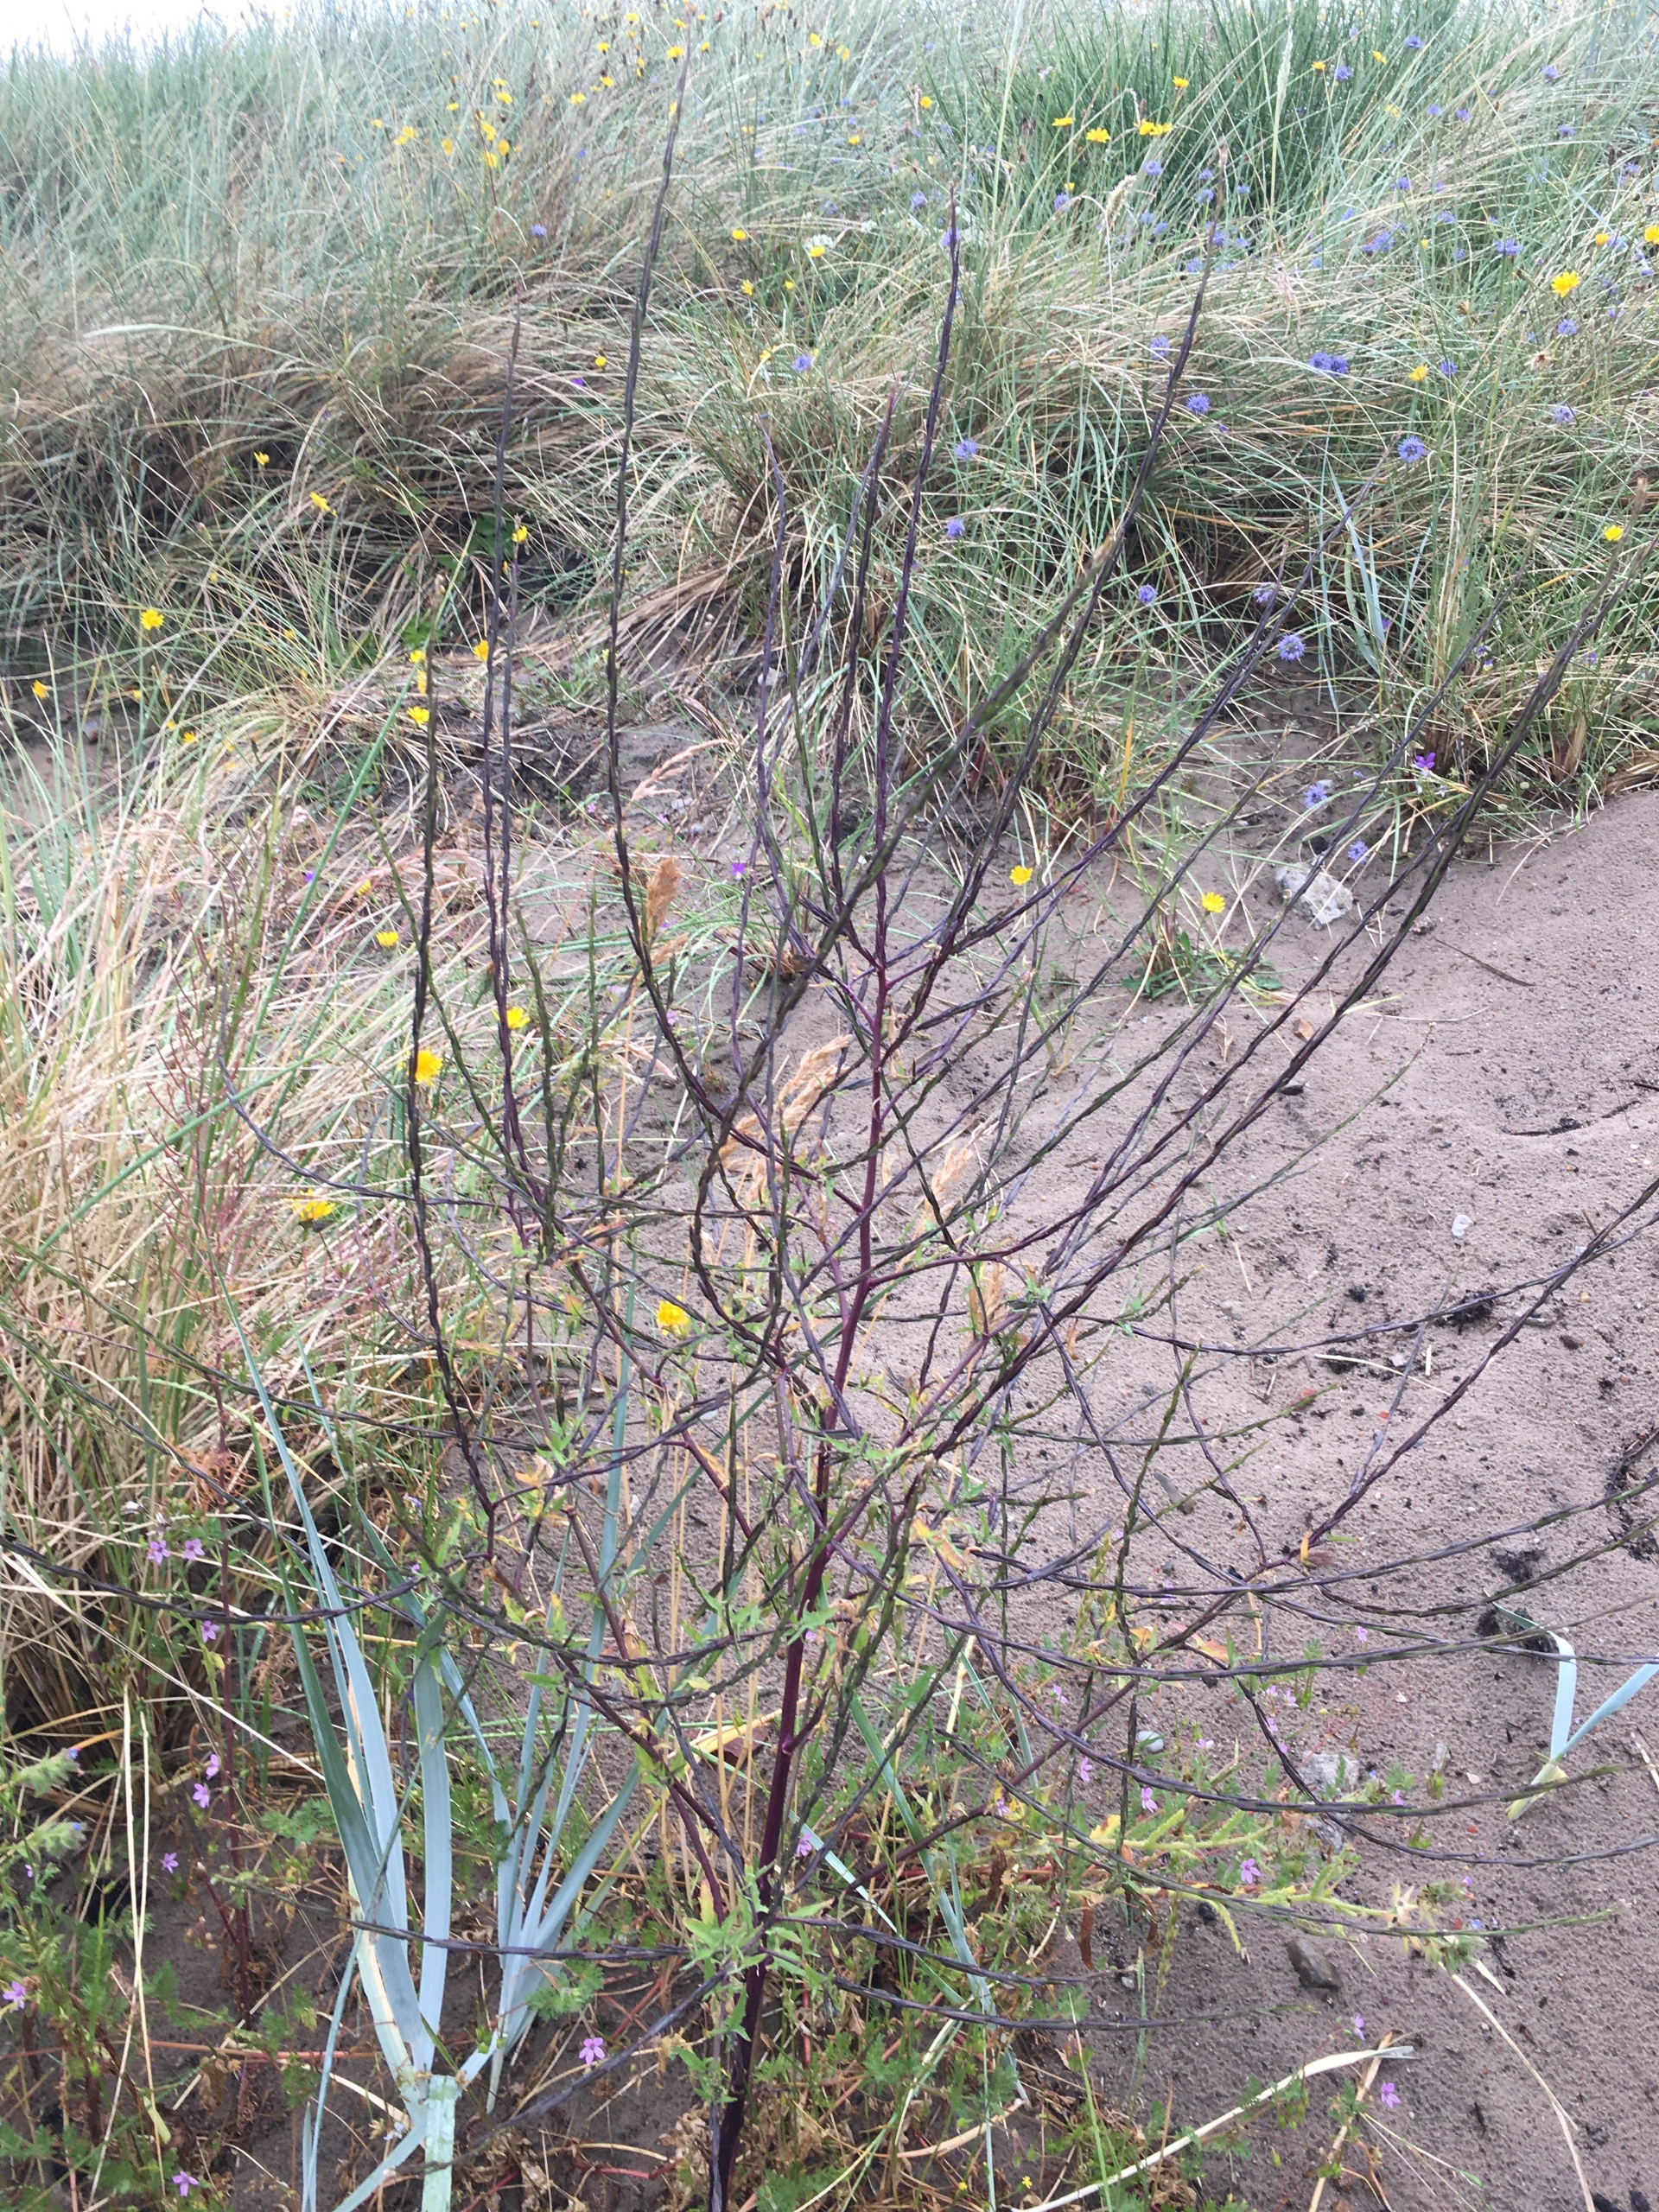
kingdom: Plantae
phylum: Tracheophyta
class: Magnoliopsida
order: Brassicales
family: Brassicaceae
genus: Sisymbrium
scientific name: Sisymbrium officinale
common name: Rank vejsennep
